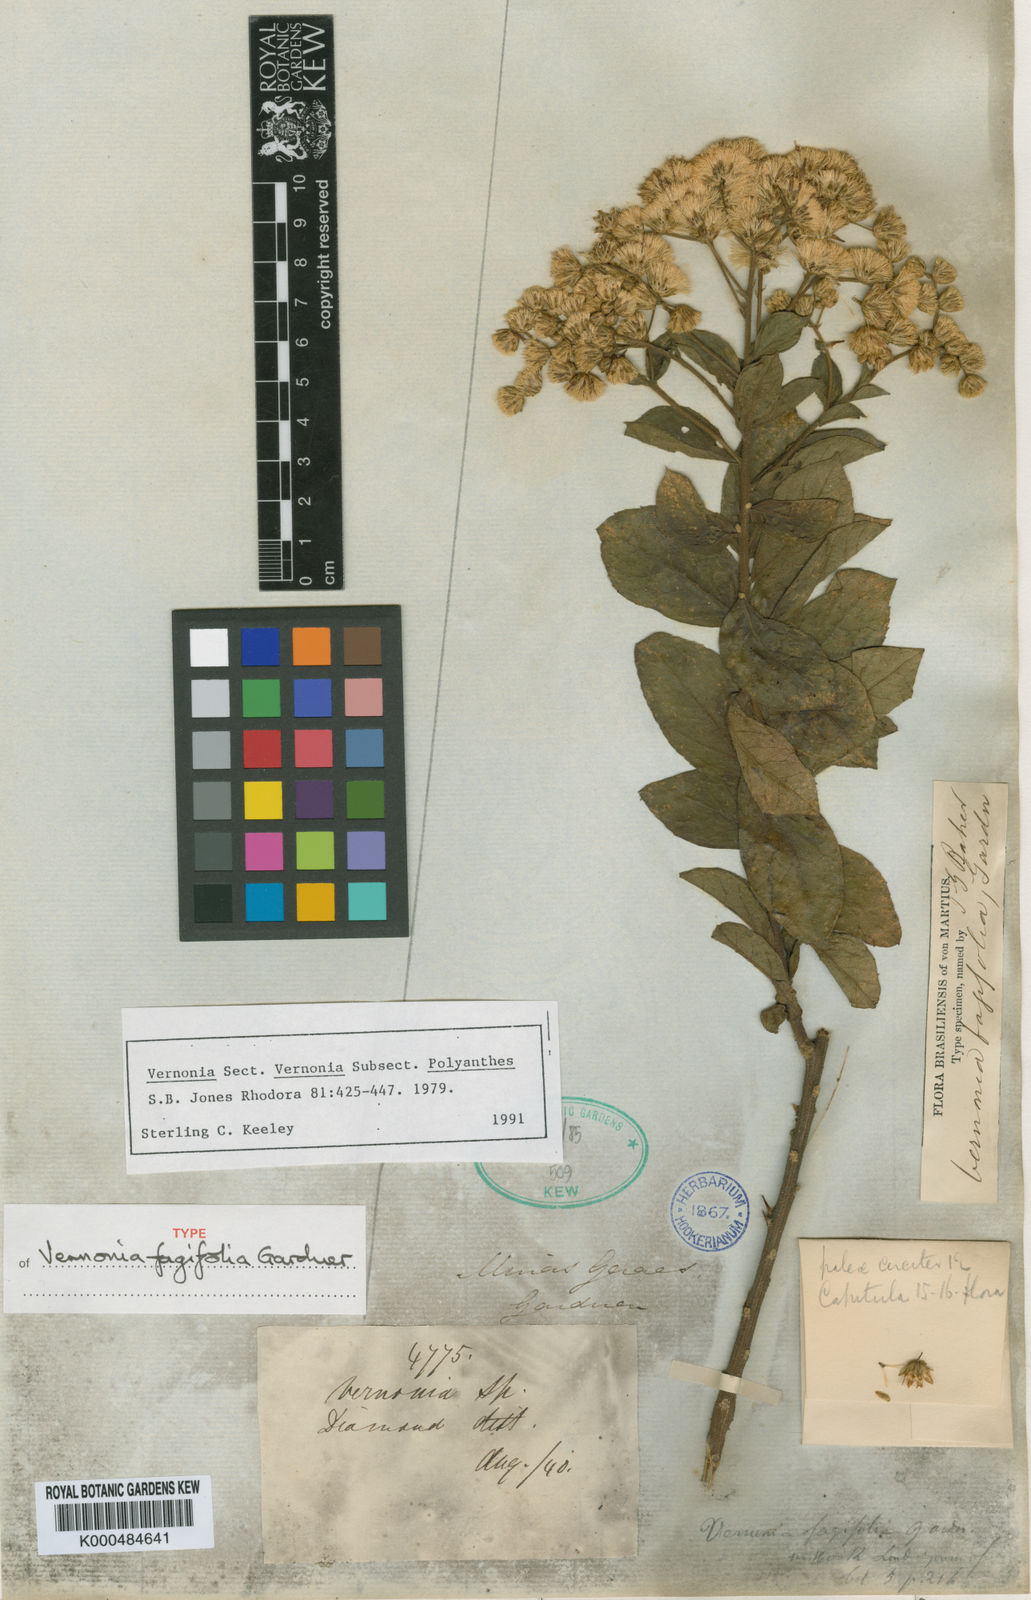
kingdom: Plantae
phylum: Tracheophyta
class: Magnoliopsida
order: Asterales
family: Asteraceae
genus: Vernonanthura
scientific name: Vernonanthura fagifolia
